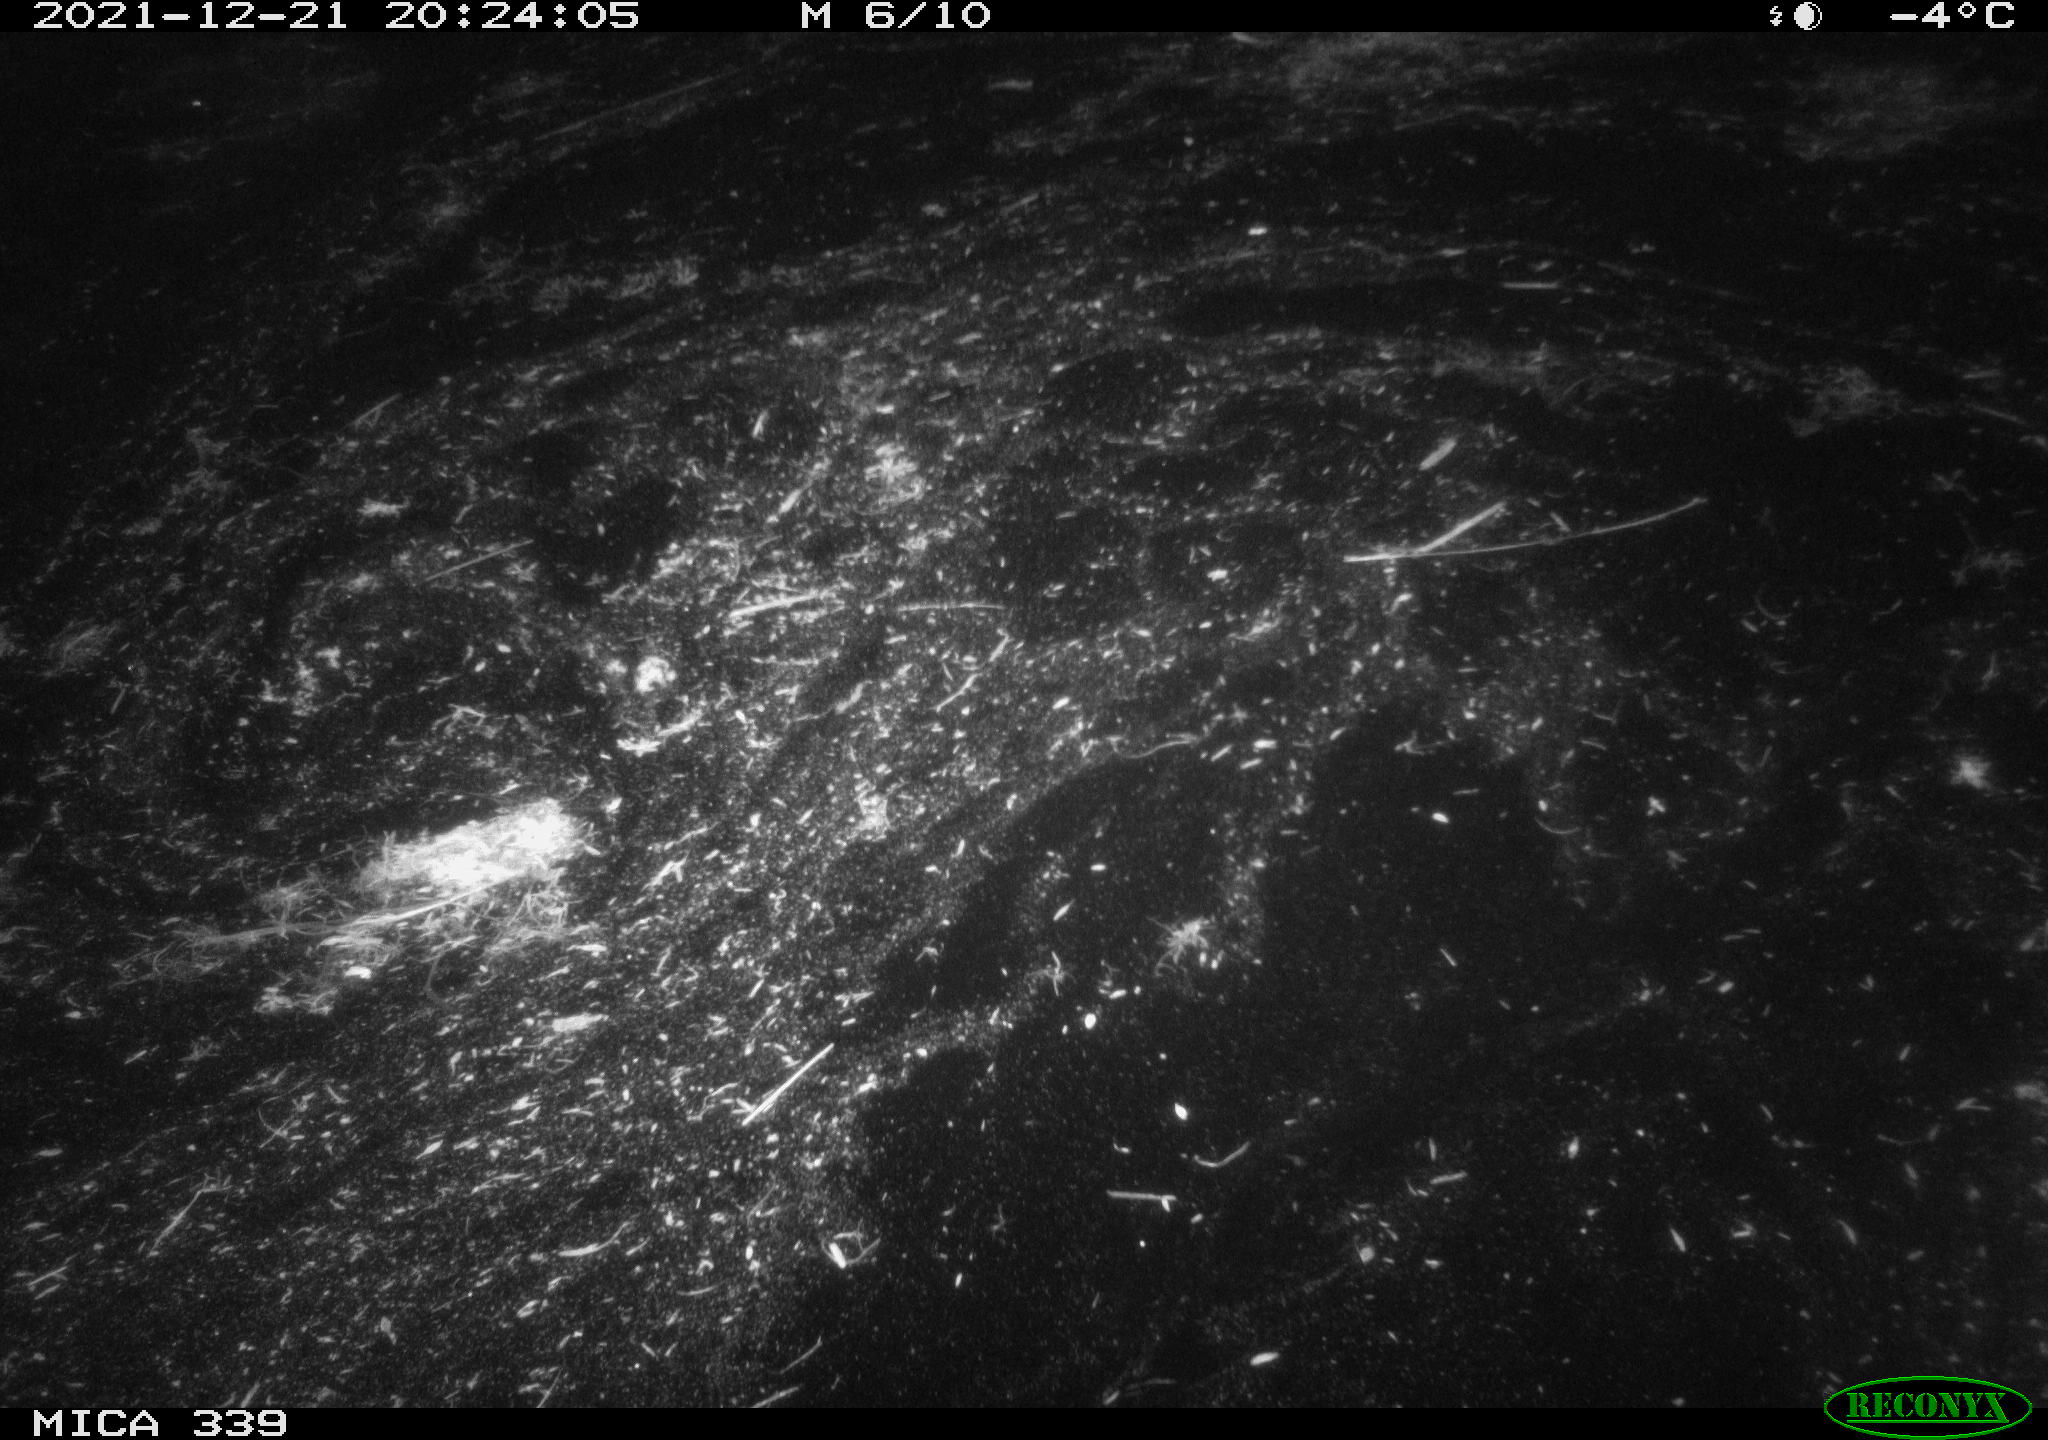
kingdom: Animalia
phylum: Chordata
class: Aves
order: Gruiformes
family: Rallidae
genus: Gallinula
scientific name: Gallinula chloropus
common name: Common moorhen
